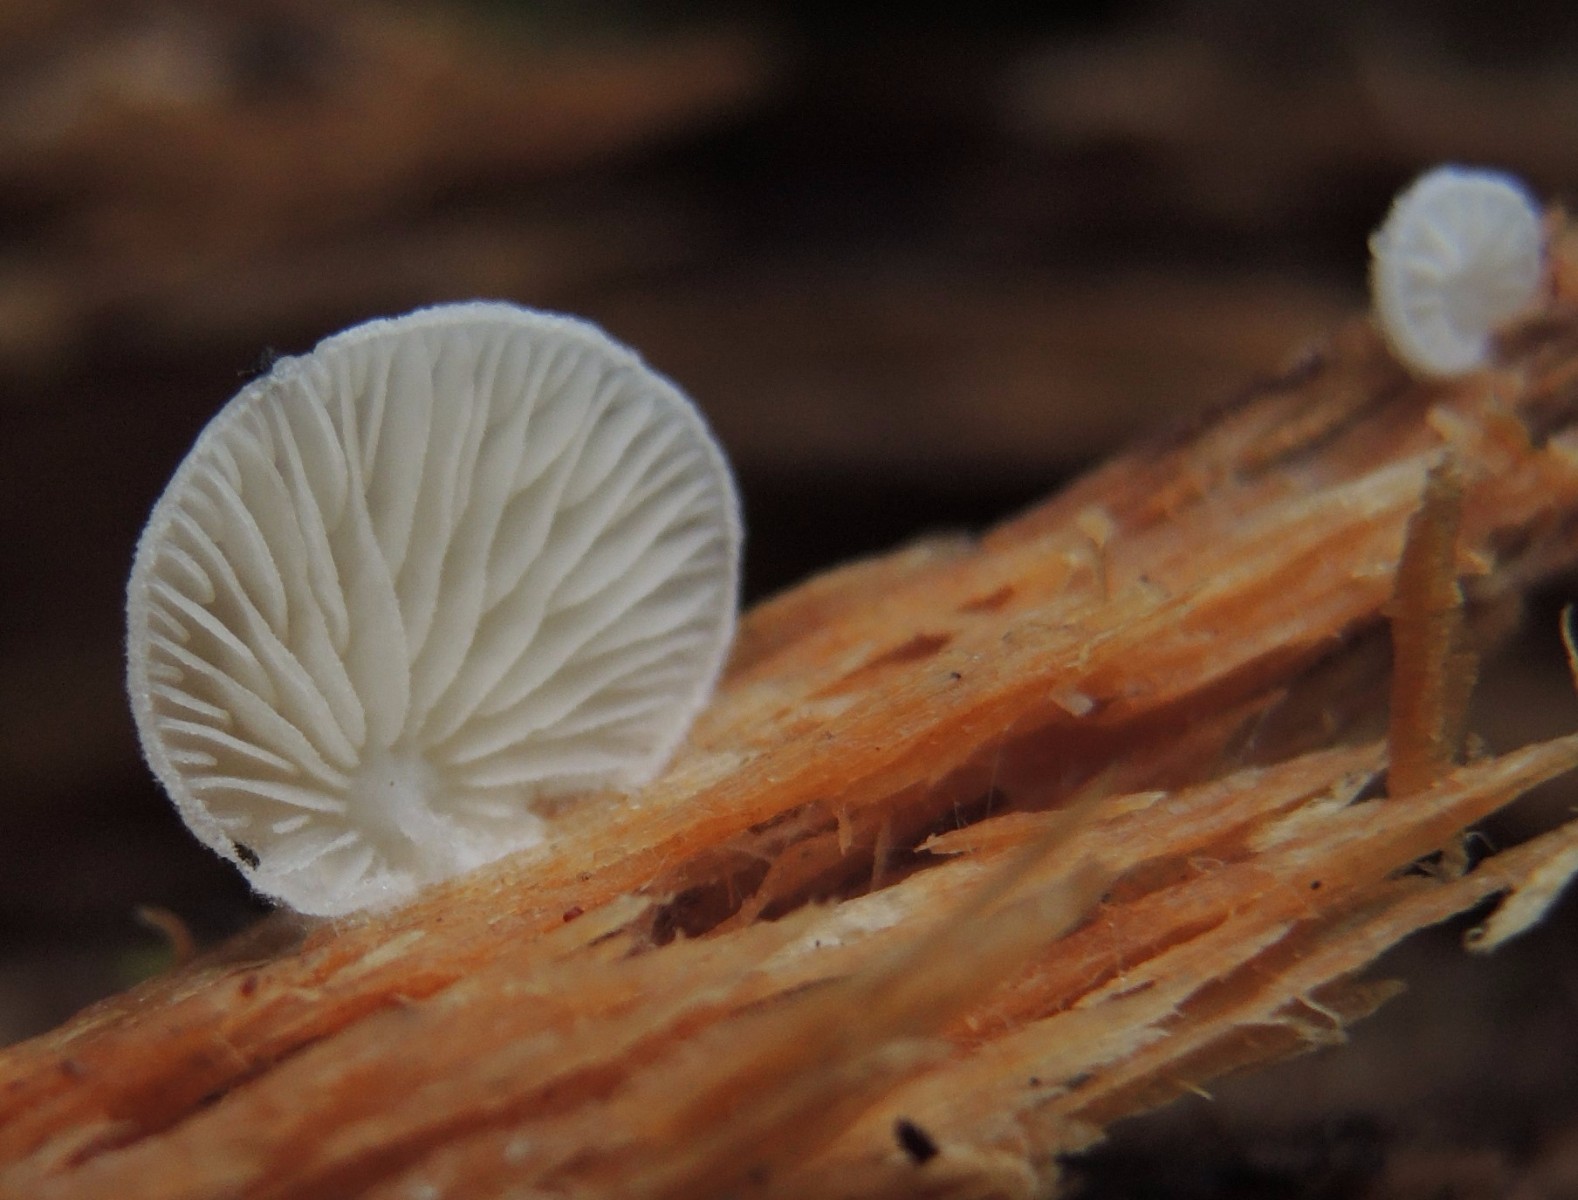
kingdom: Fungi
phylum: Basidiomycota
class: Agaricomycetes
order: Agaricales
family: Entolomataceae
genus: Clitopilus
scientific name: Clitopilus hobsonii
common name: Miller's oysterling
